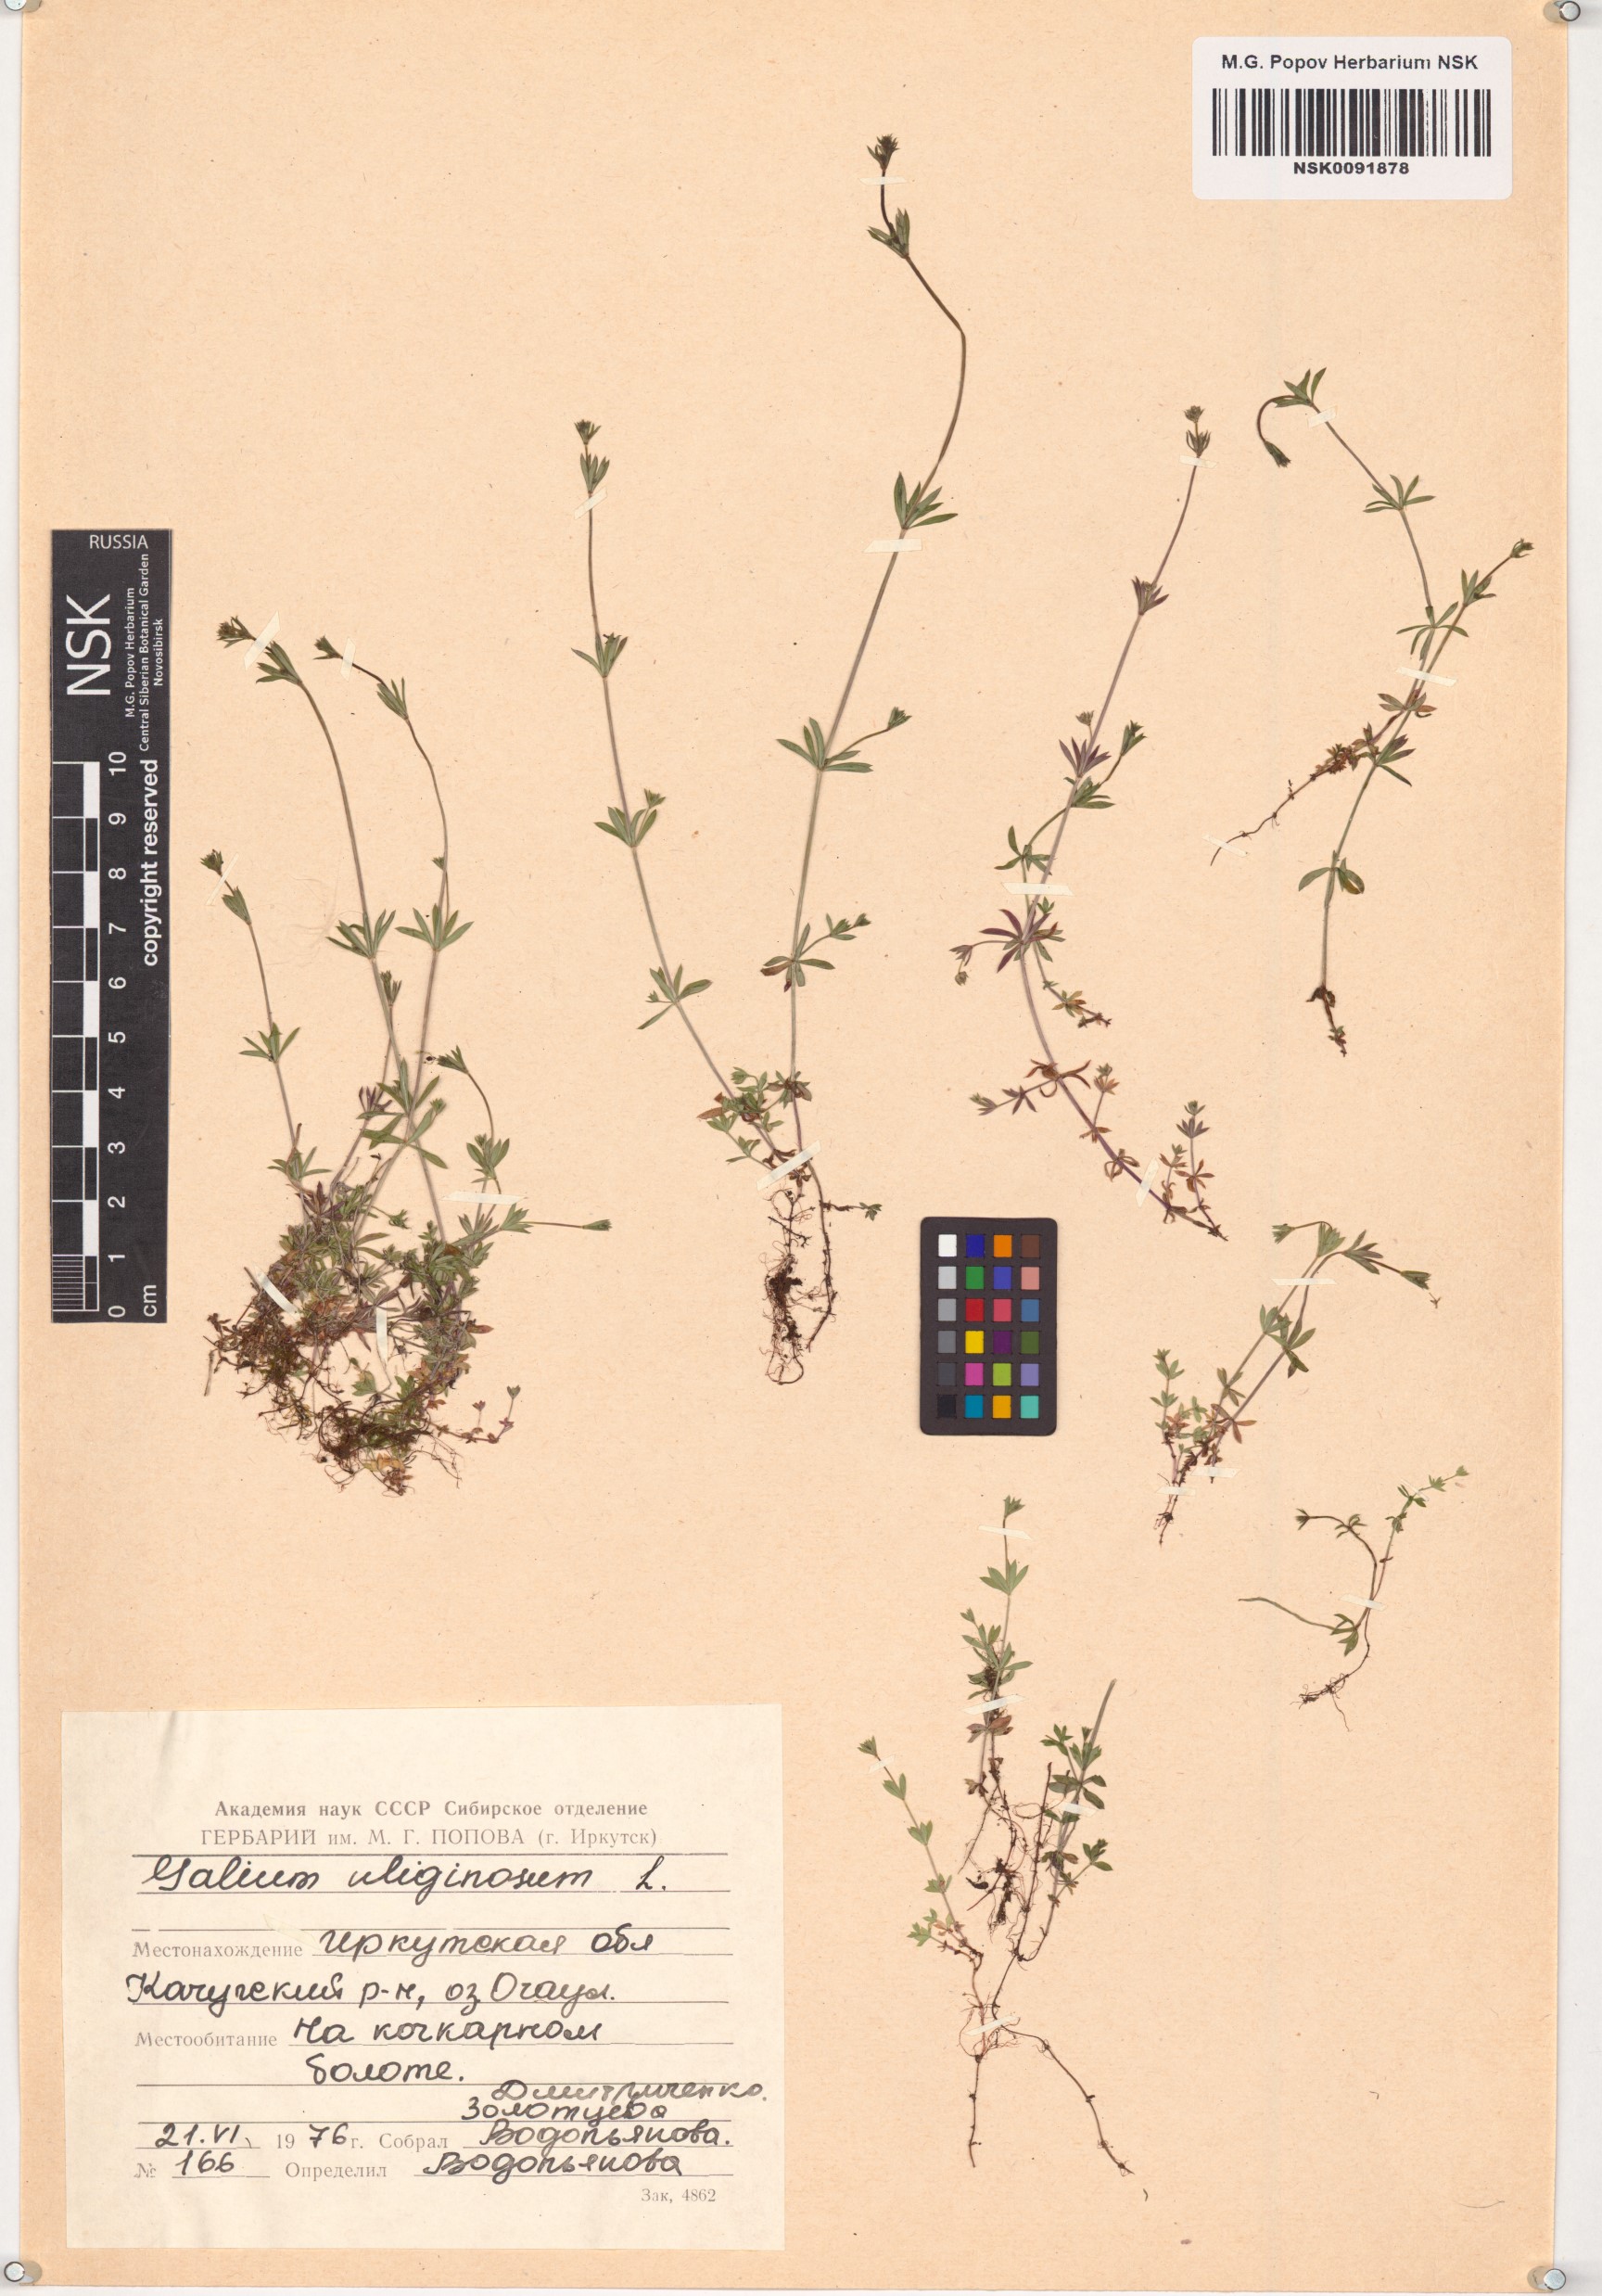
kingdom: Plantae
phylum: Tracheophyta
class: Magnoliopsida
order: Gentianales
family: Rubiaceae
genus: Galium
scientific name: Galium uliginosum
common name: Fen bedstraw
